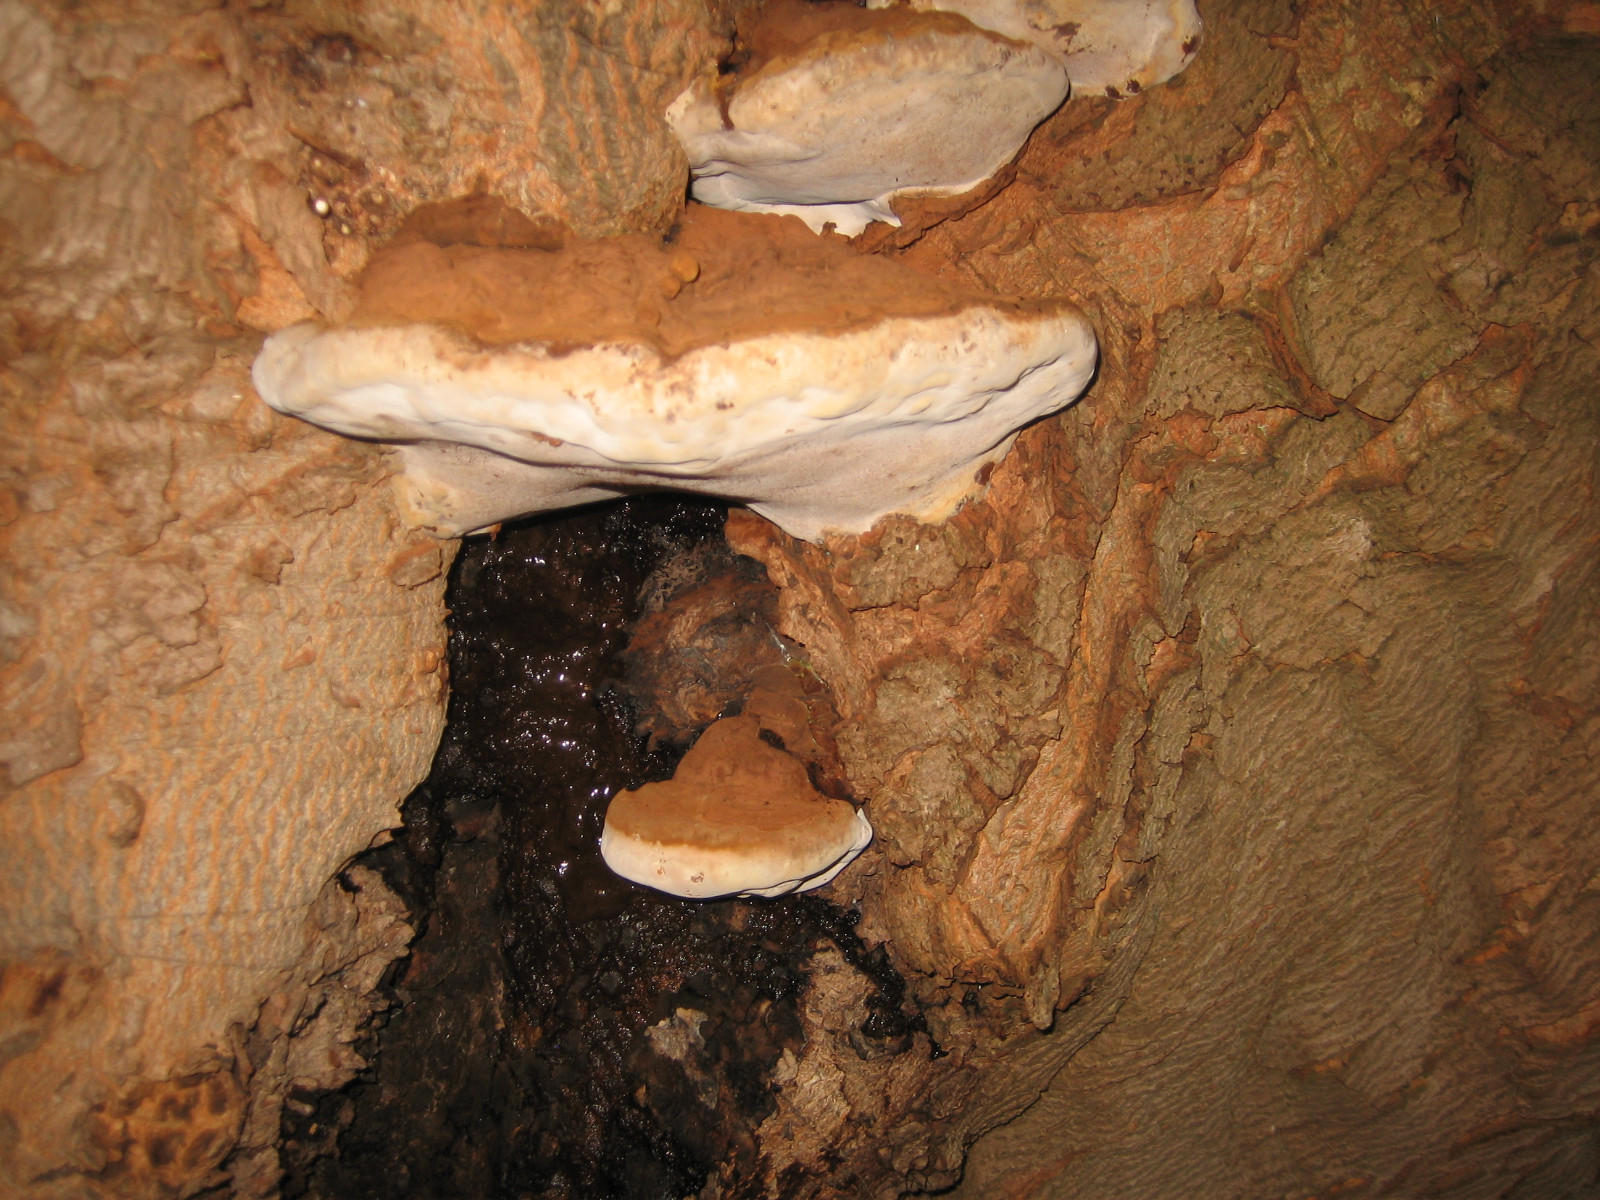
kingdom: Fungi
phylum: Basidiomycota
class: Agaricomycetes
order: Polyporales
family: Polyporaceae
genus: Ganoderma
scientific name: Ganoderma adspersum
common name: grov lakporesvamp
